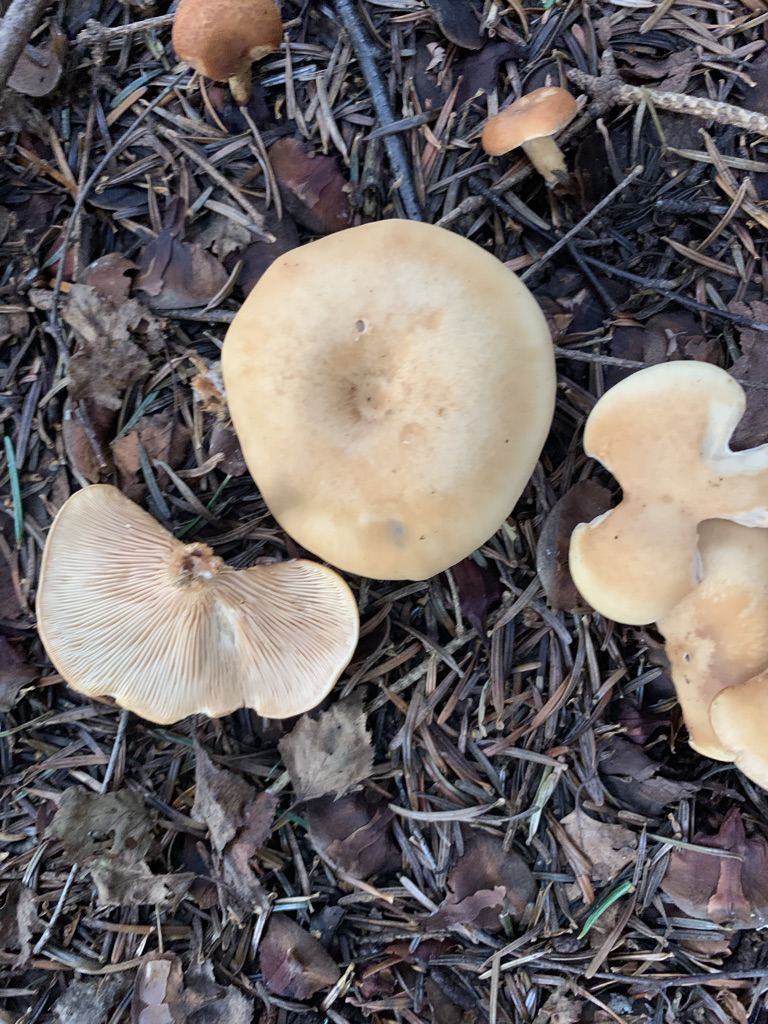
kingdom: Fungi
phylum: Basidiomycota
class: Agaricomycetes
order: Agaricales
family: Tricholomataceae
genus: Paralepista
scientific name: Paralepista flaccida
